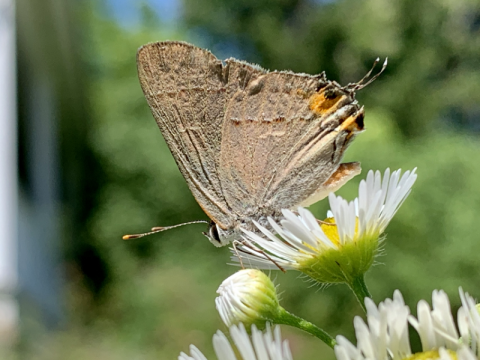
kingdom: Animalia
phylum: Arthropoda
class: Insecta
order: Lepidoptera
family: Lycaenidae
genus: Strymon
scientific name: Strymon melinus
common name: Gray Hairstreak
